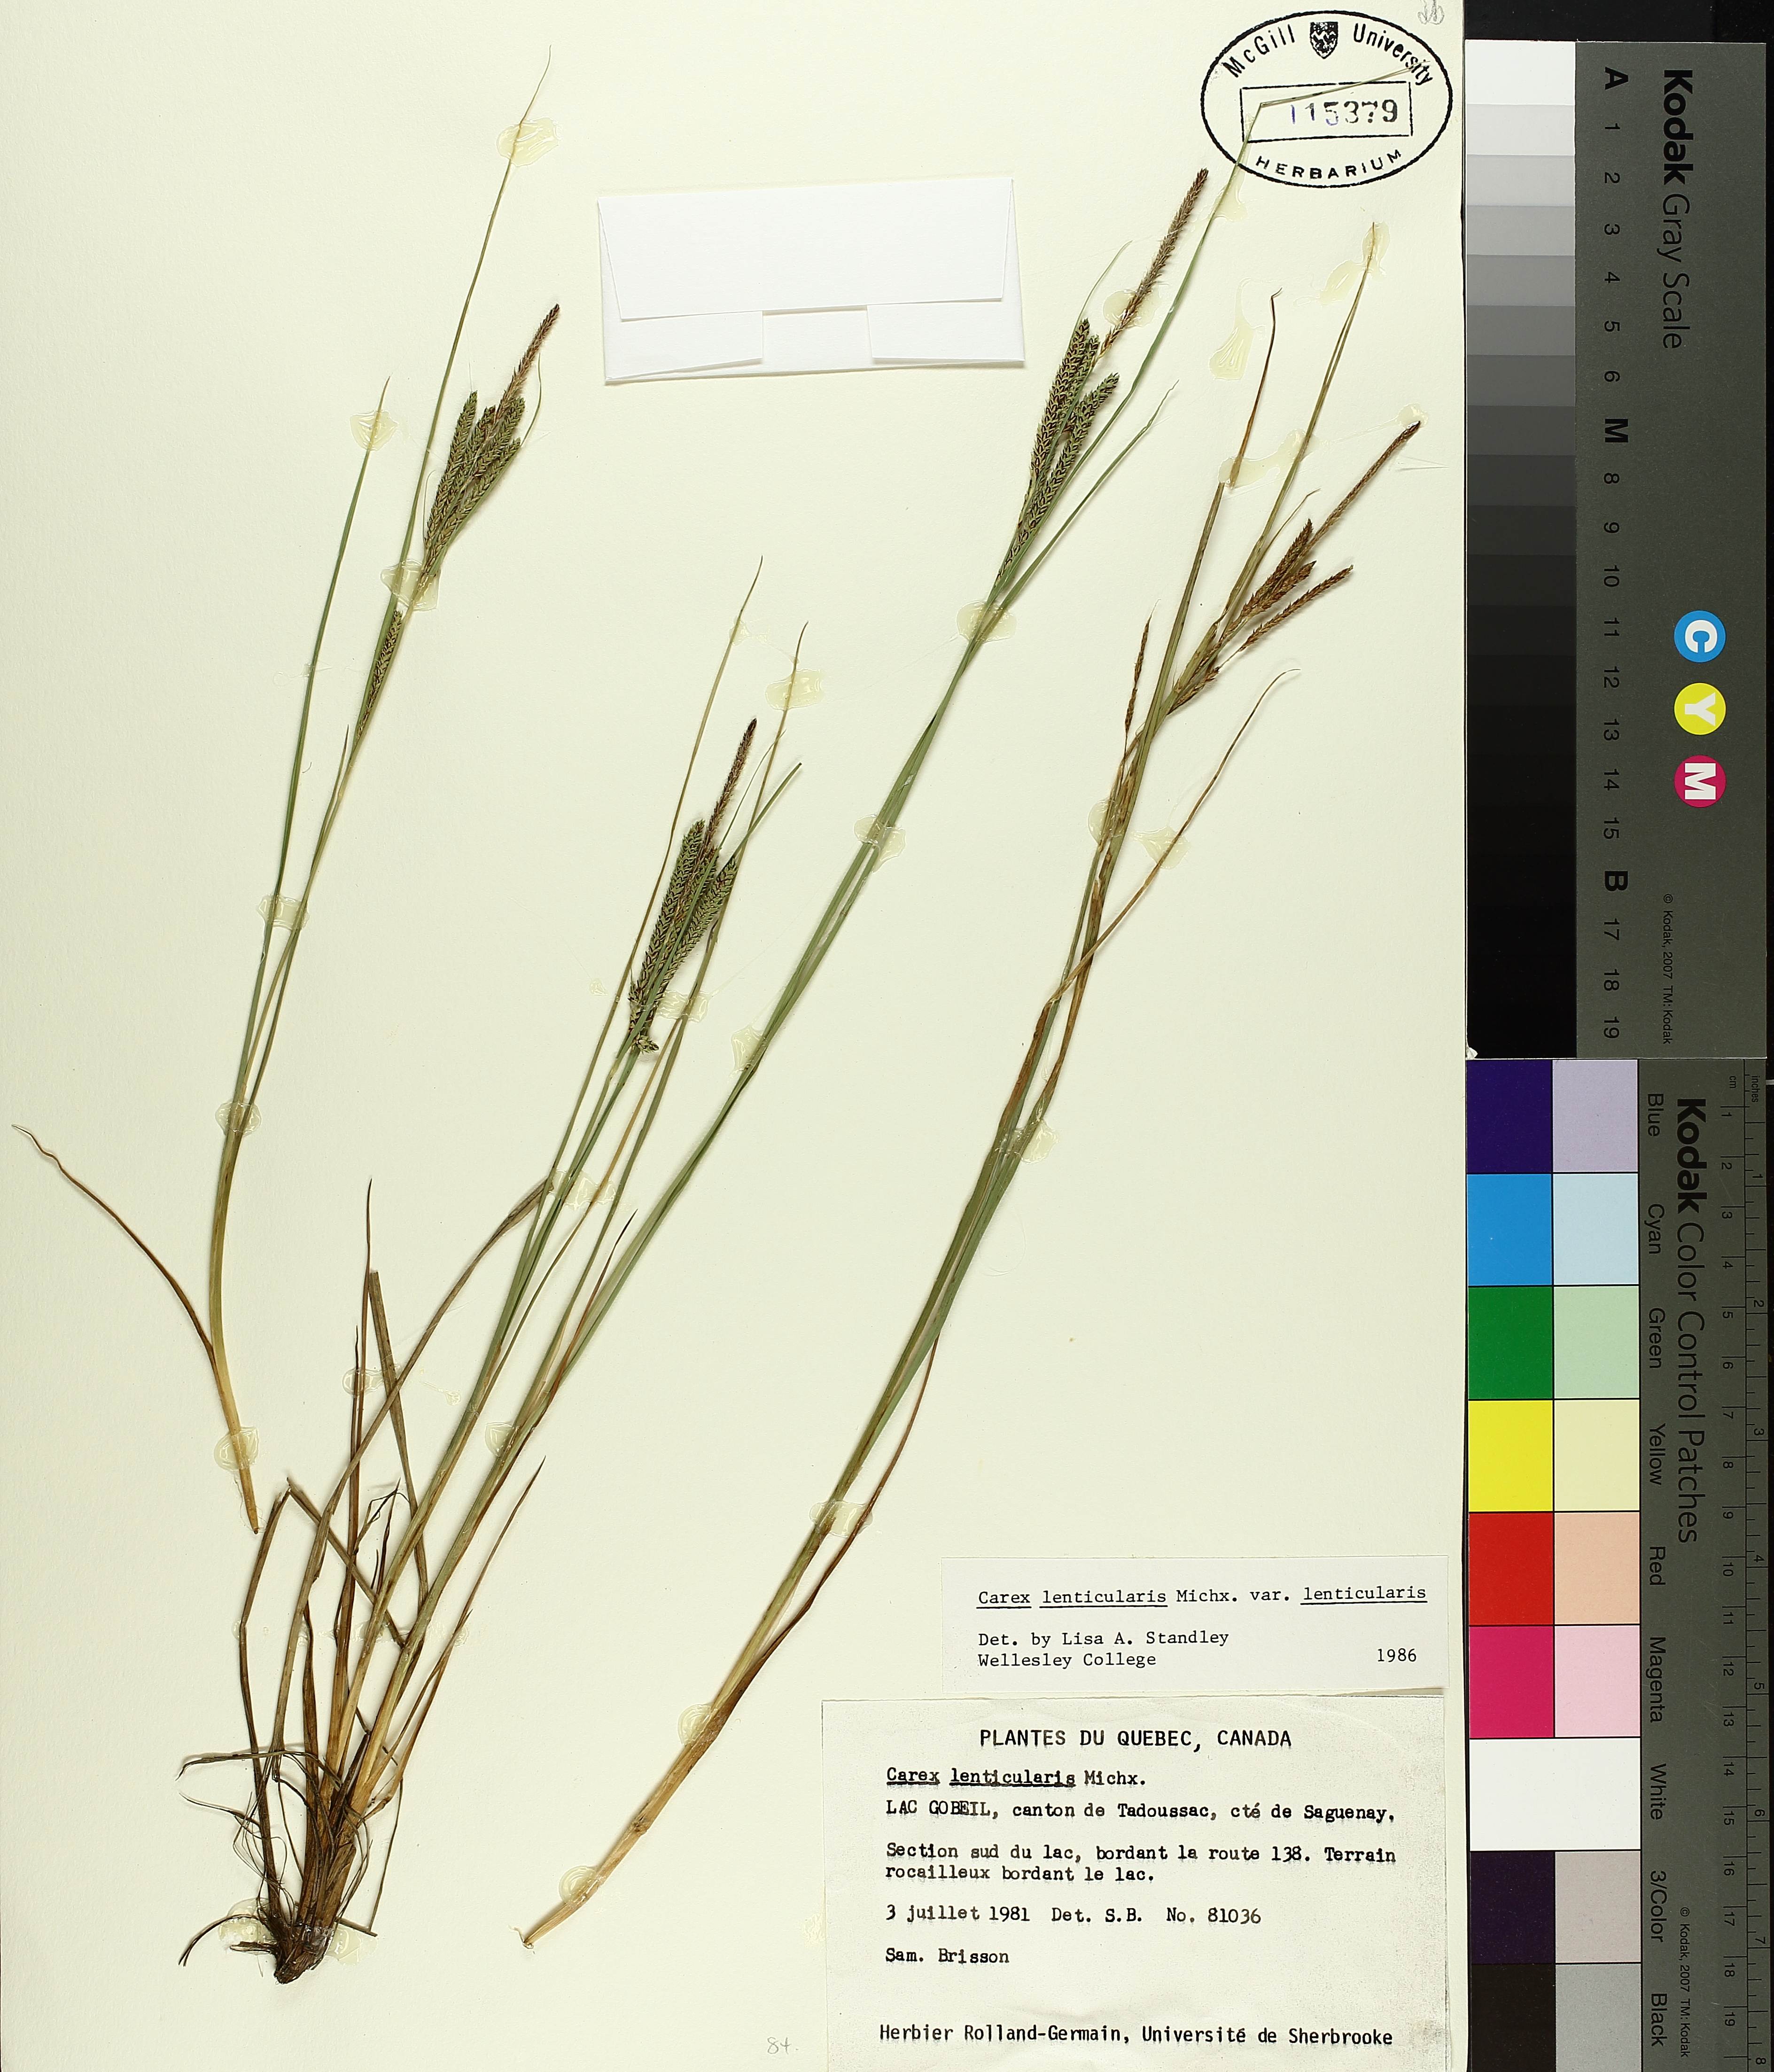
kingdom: Plantae
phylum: Tracheophyta
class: Liliopsida
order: Poales
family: Cyperaceae
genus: Carex
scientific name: Carex lenticularis
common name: Lakeshore sedge
